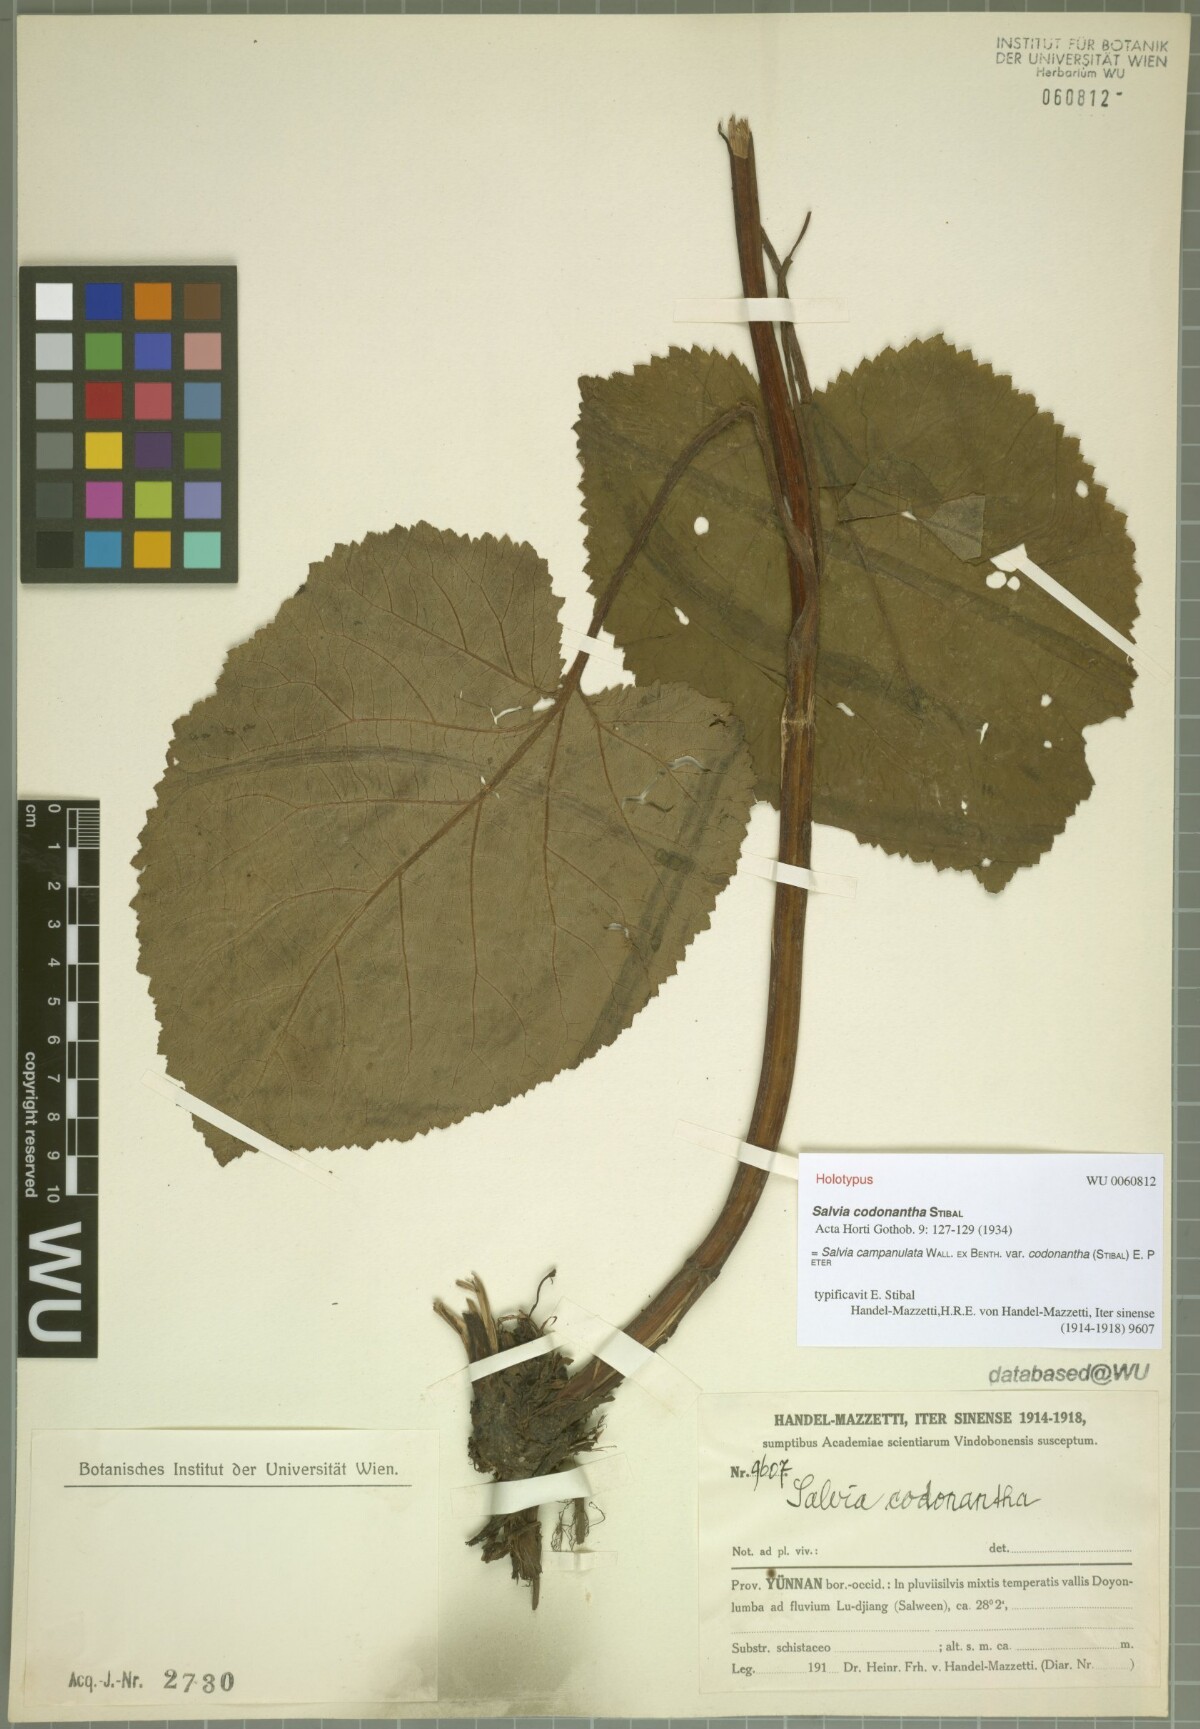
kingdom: Plantae
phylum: Tracheophyta
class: Magnoliopsida
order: Lamiales
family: Lamiaceae
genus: Salvia
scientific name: Salvia campanulata
